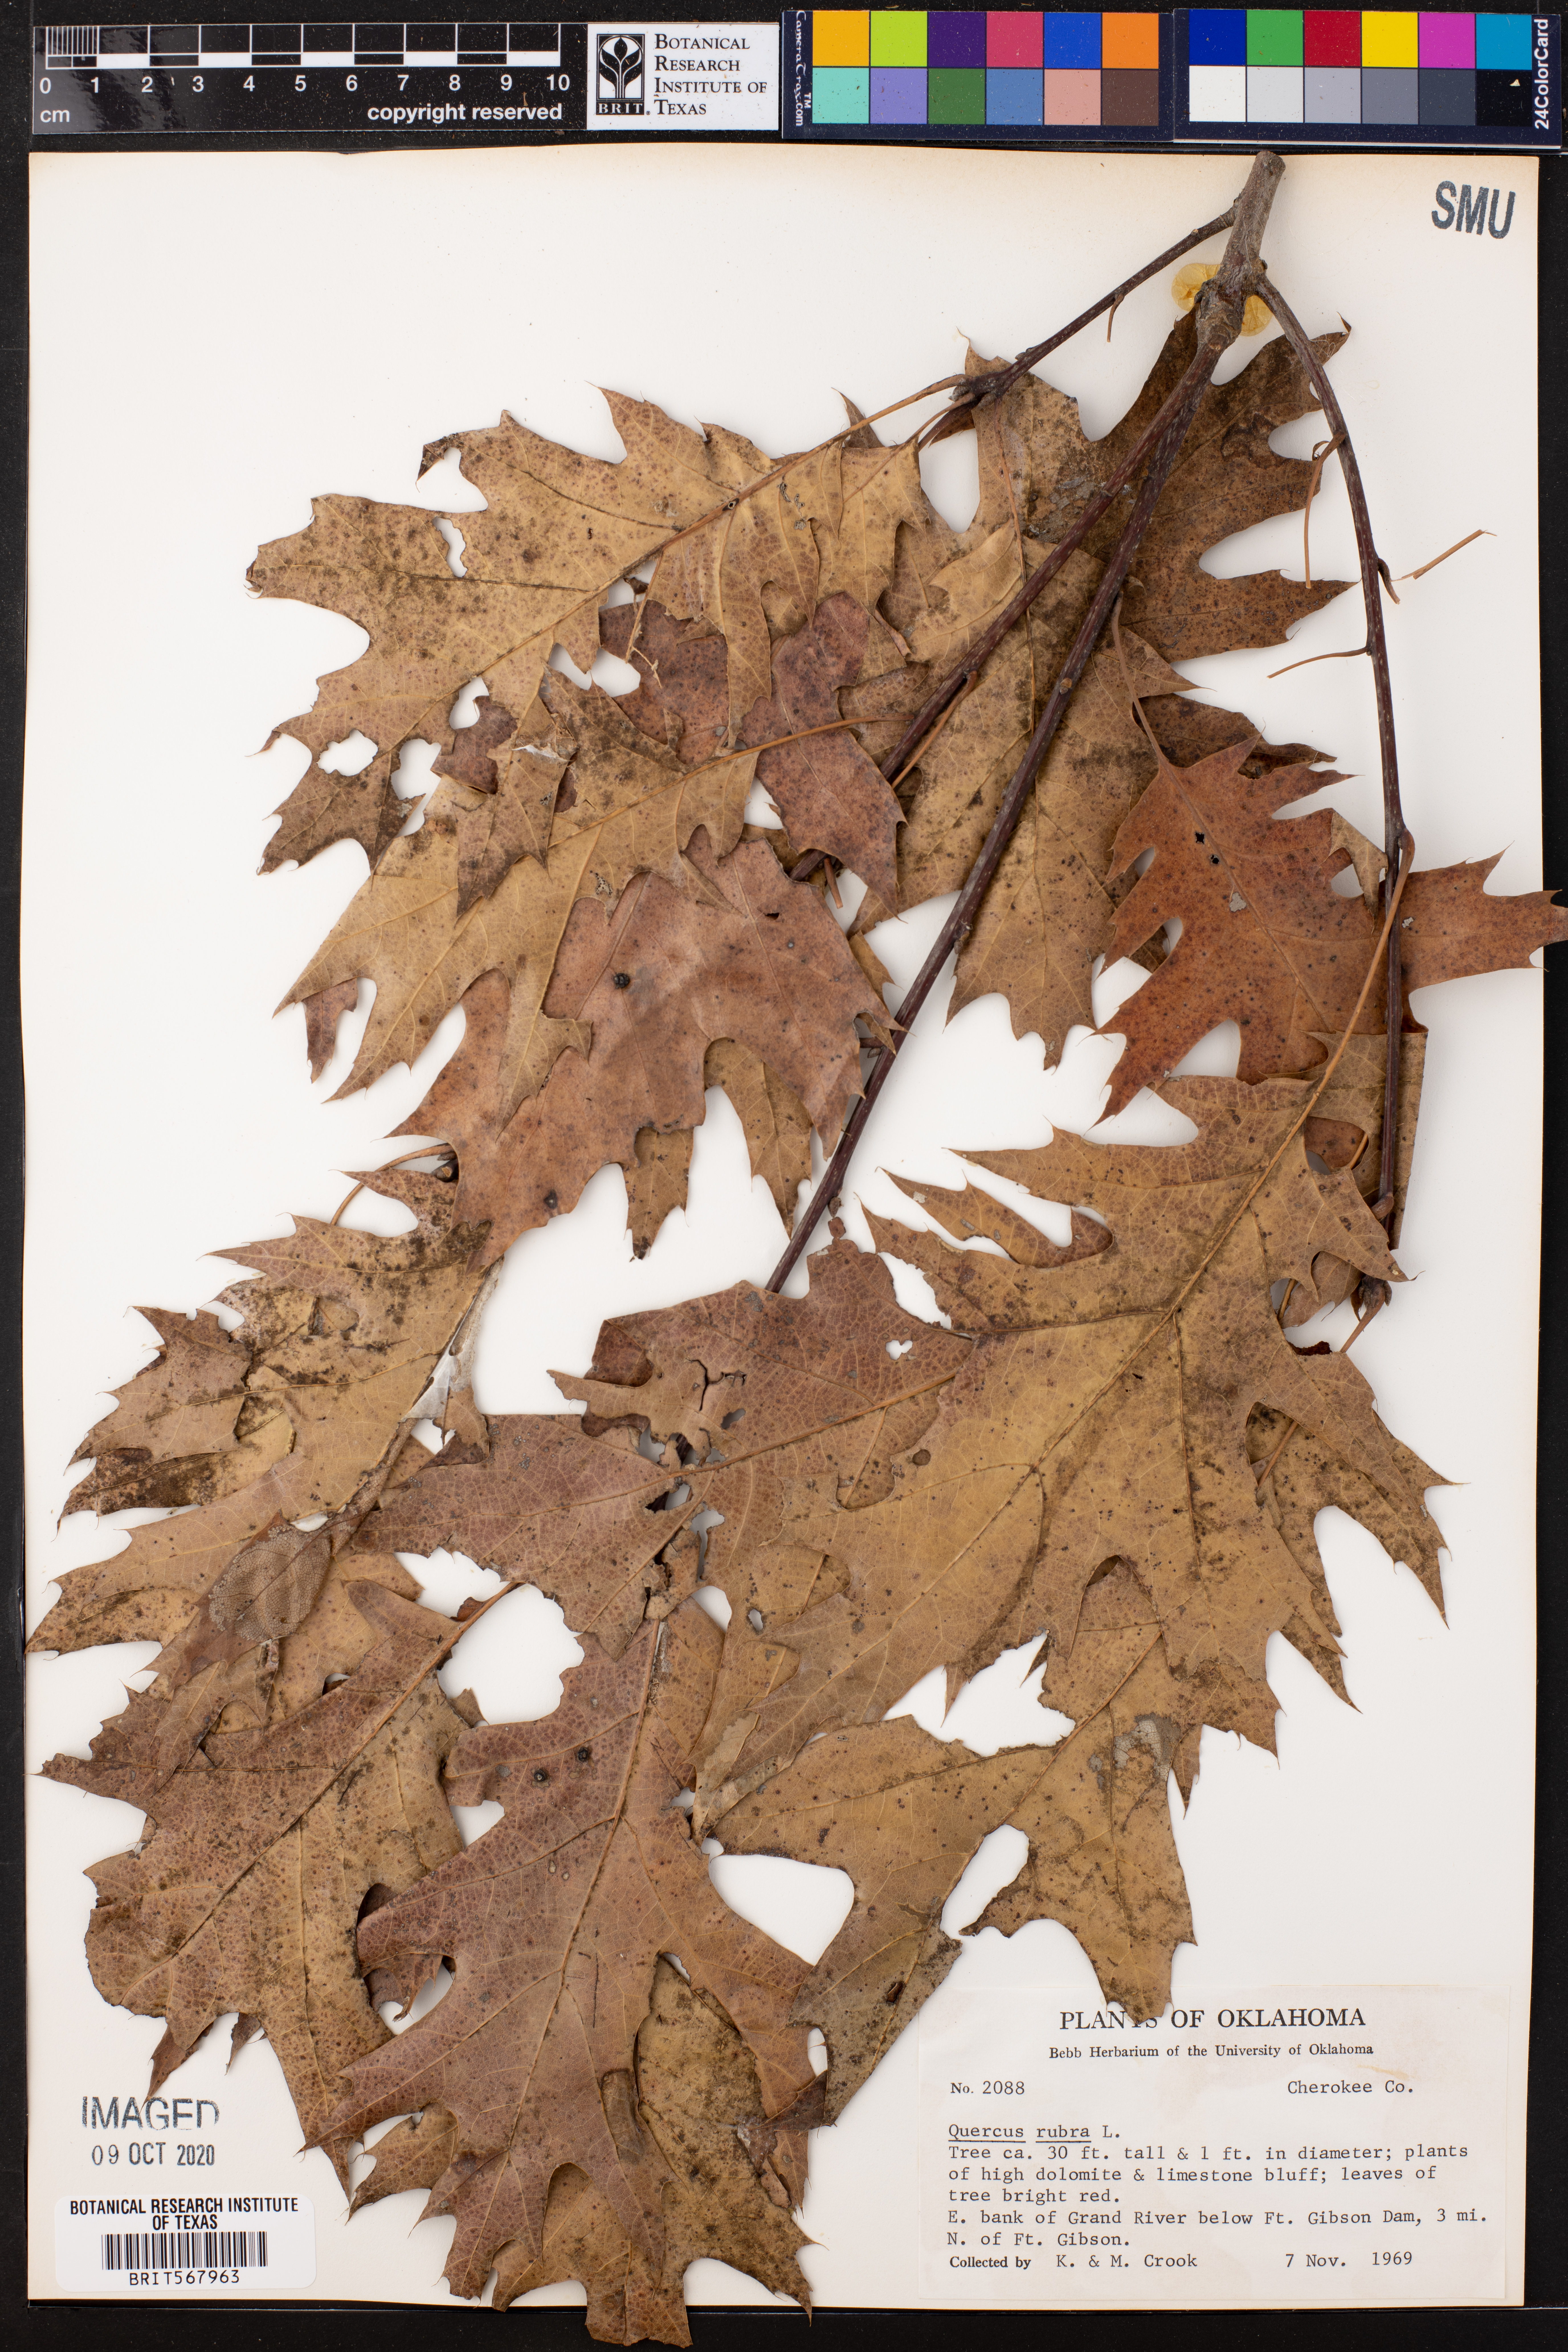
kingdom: Plantae
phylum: Tracheophyta
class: Magnoliopsida
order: Fagales
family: Fagaceae
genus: Quercus
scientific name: Quercus rubra
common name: Red oak
